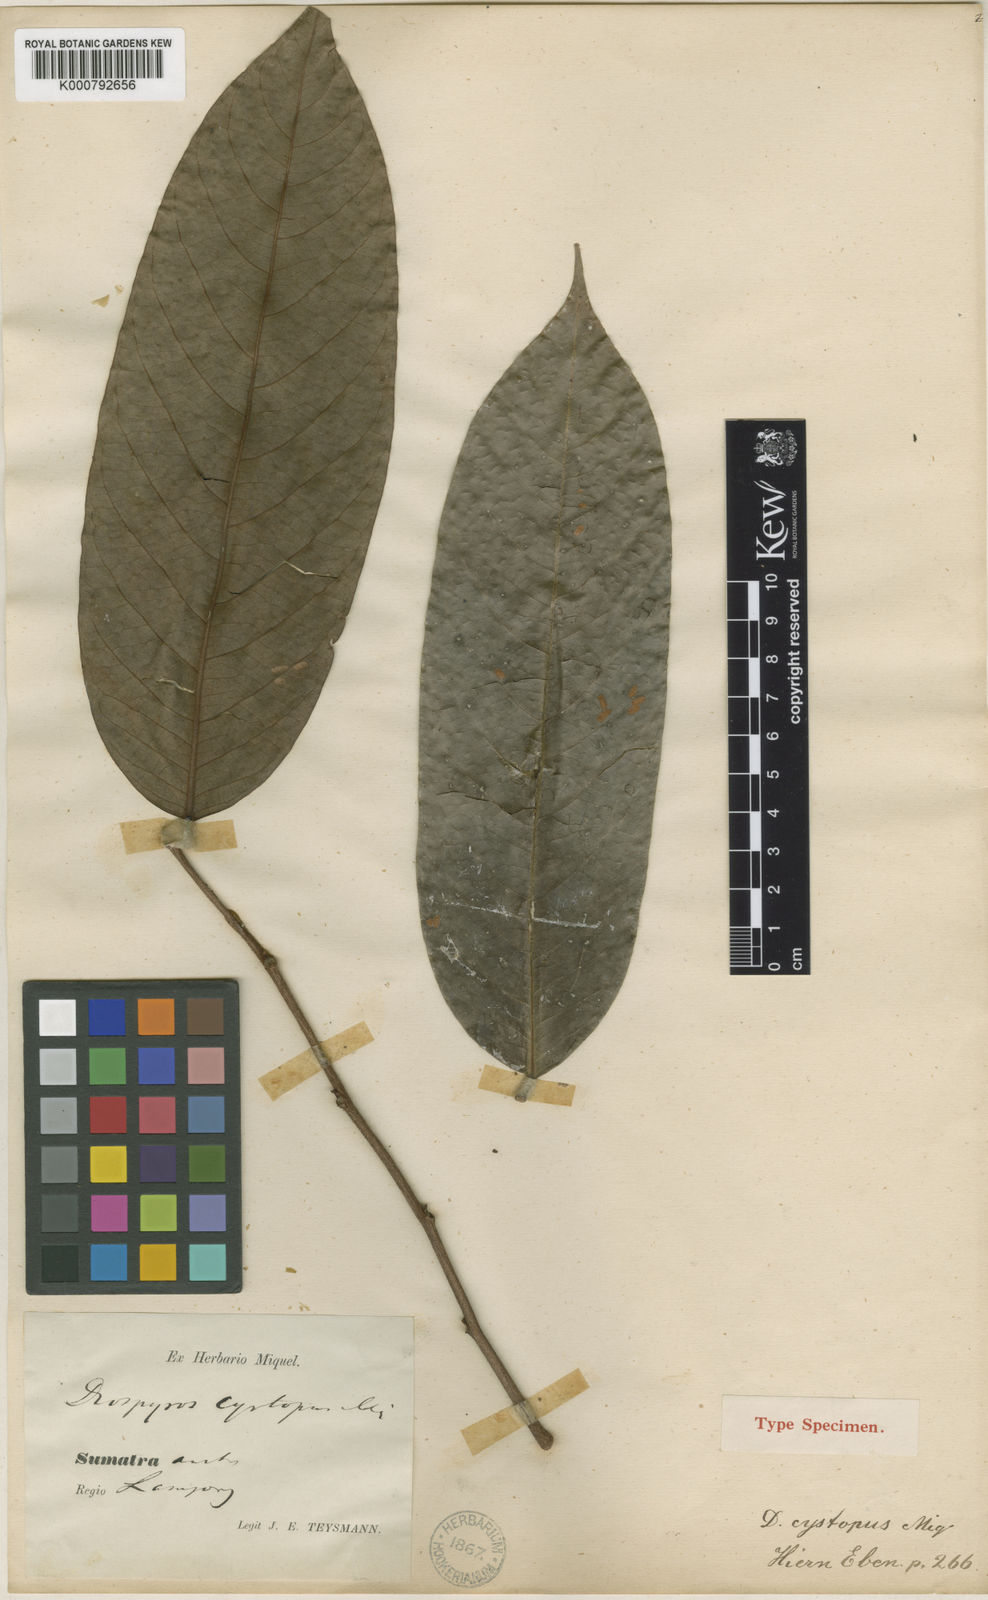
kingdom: Plantae
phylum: Tracheophyta
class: Magnoliopsida
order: Ericales
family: Ebenaceae
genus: Diospyros
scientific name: Diospyros macrophylla
